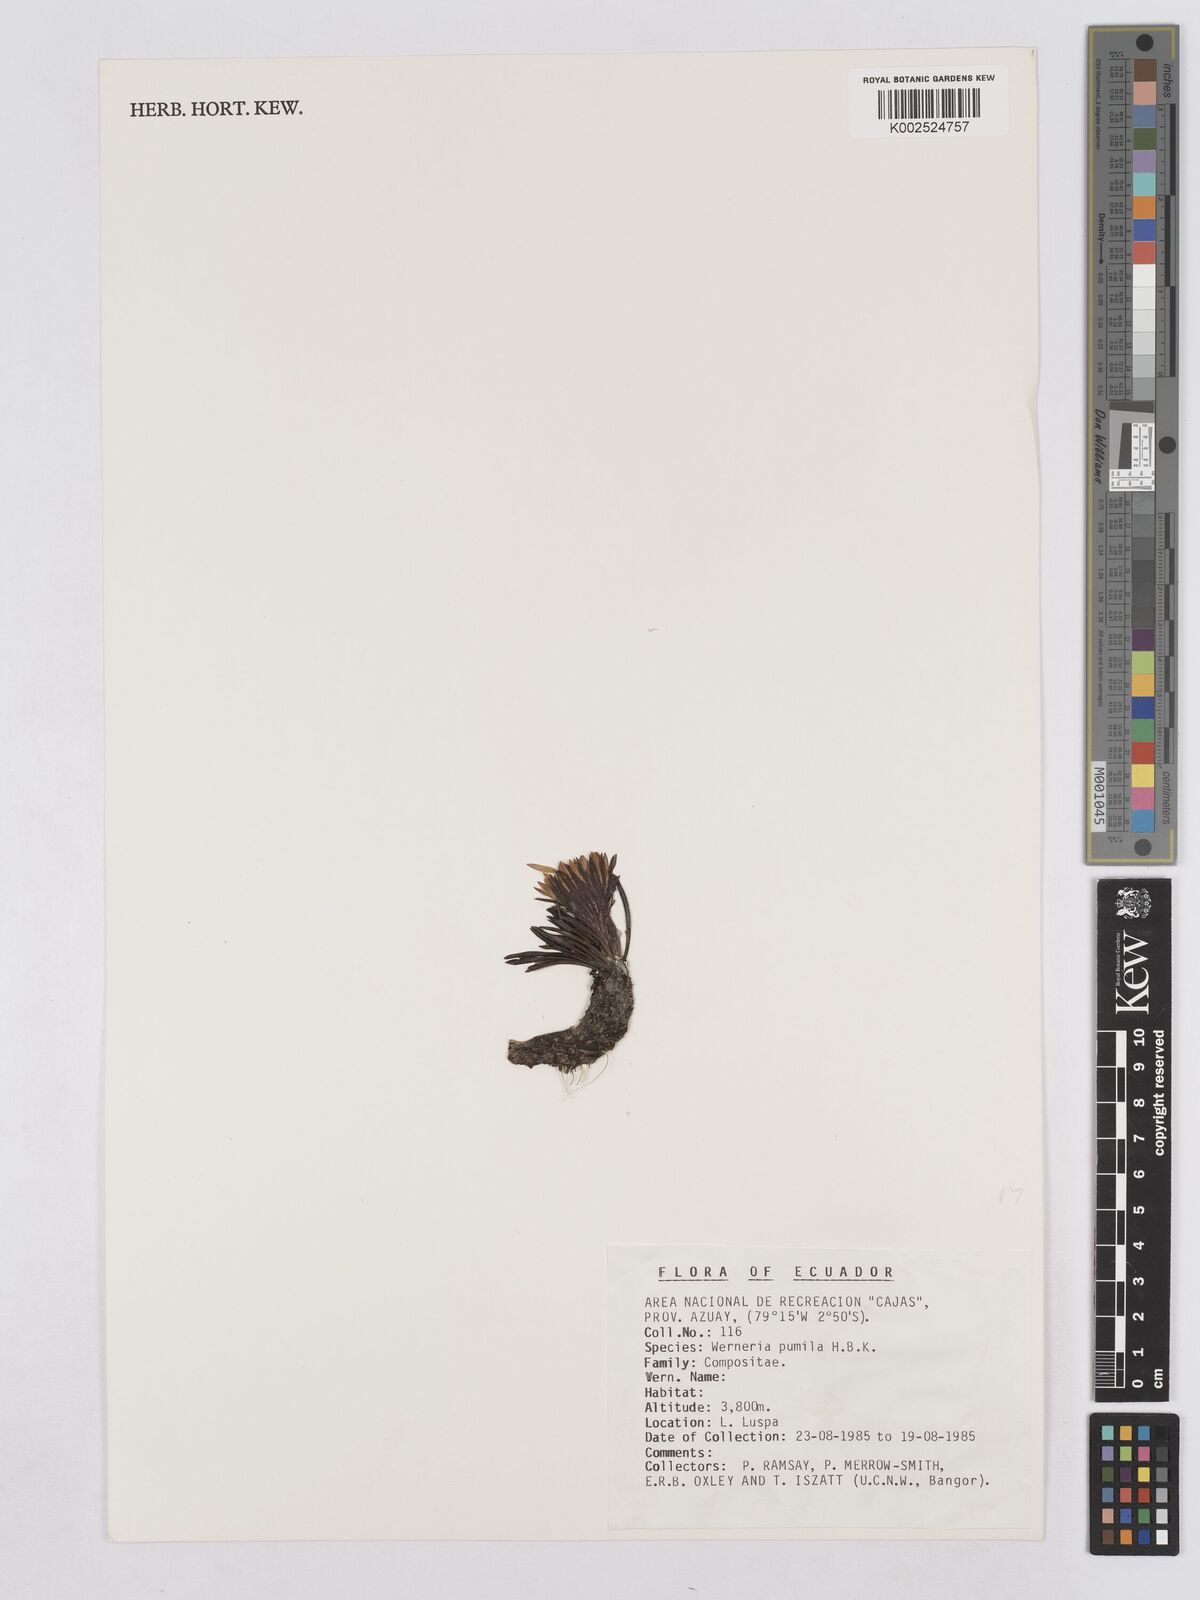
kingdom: Plantae
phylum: Tracheophyta
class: Magnoliopsida
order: Asterales
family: Asteraceae
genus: Rockhausenia
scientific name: Rockhausenia pumila
